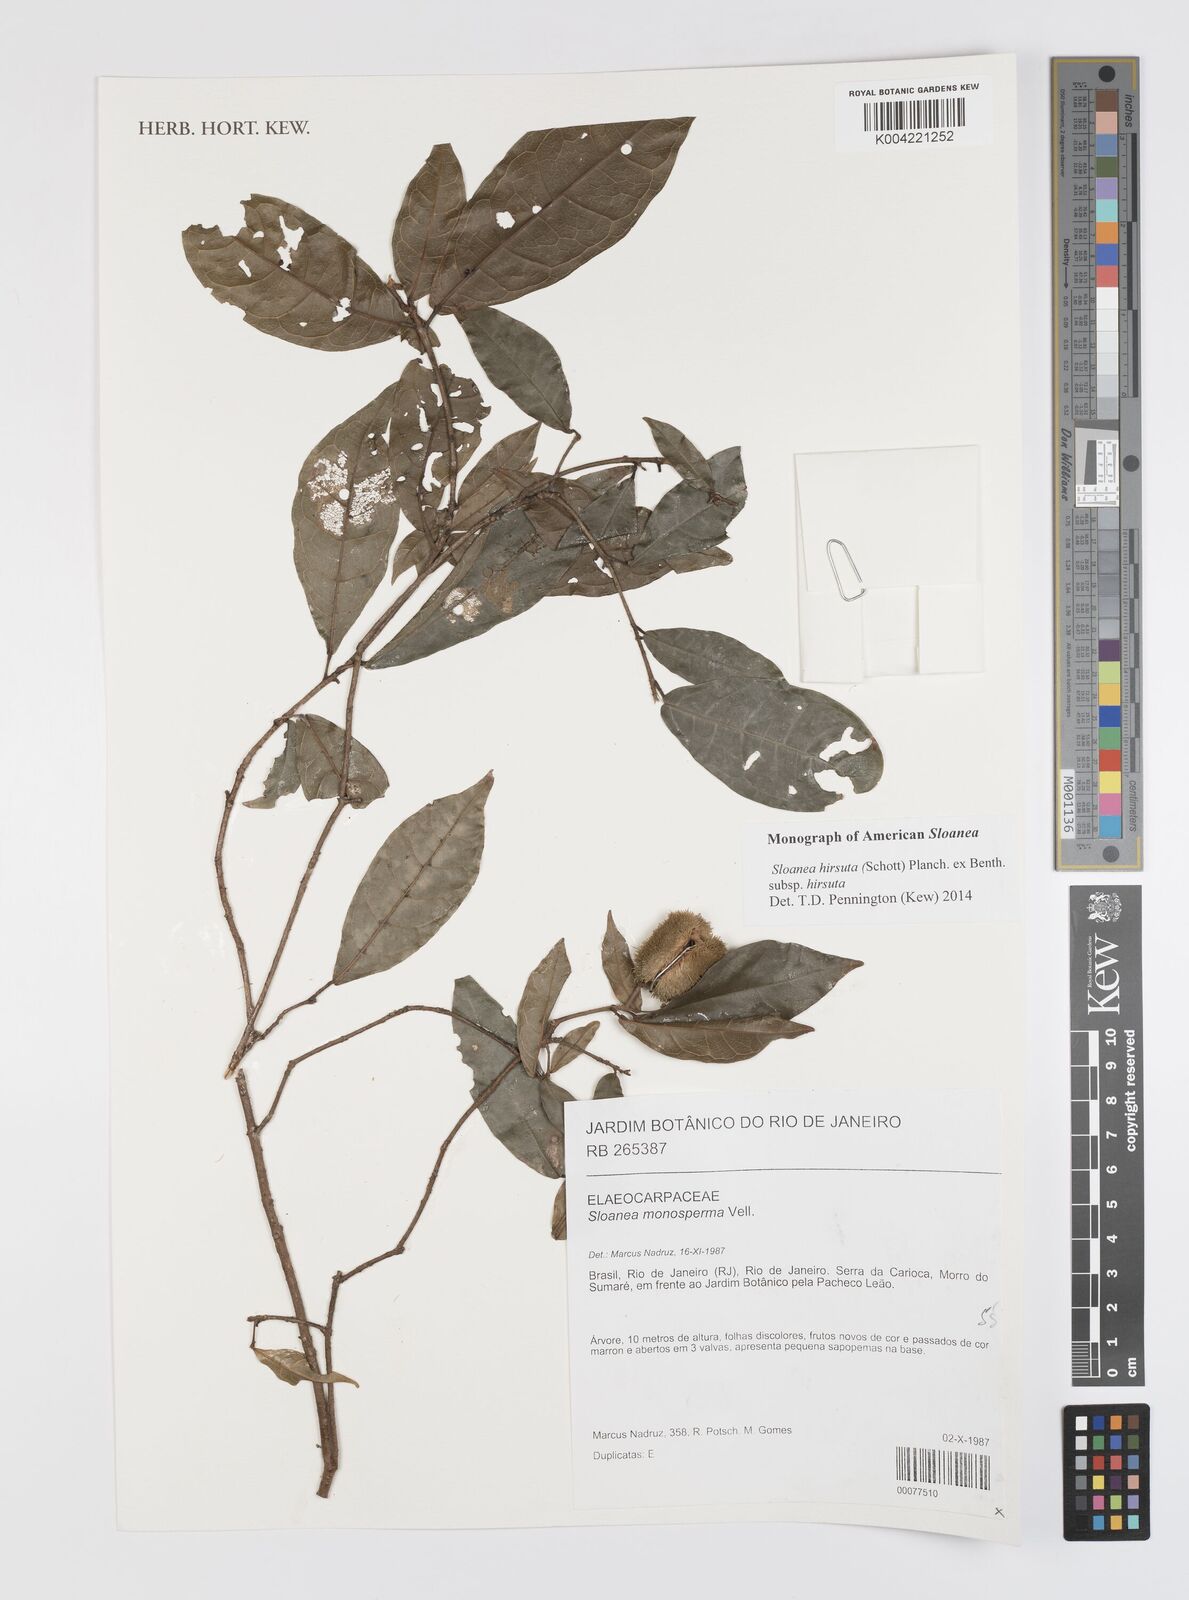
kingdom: Plantae
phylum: Tracheophyta
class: Magnoliopsida
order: Oxalidales
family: Elaeocarpaceae
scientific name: Elaeocarpaceae
